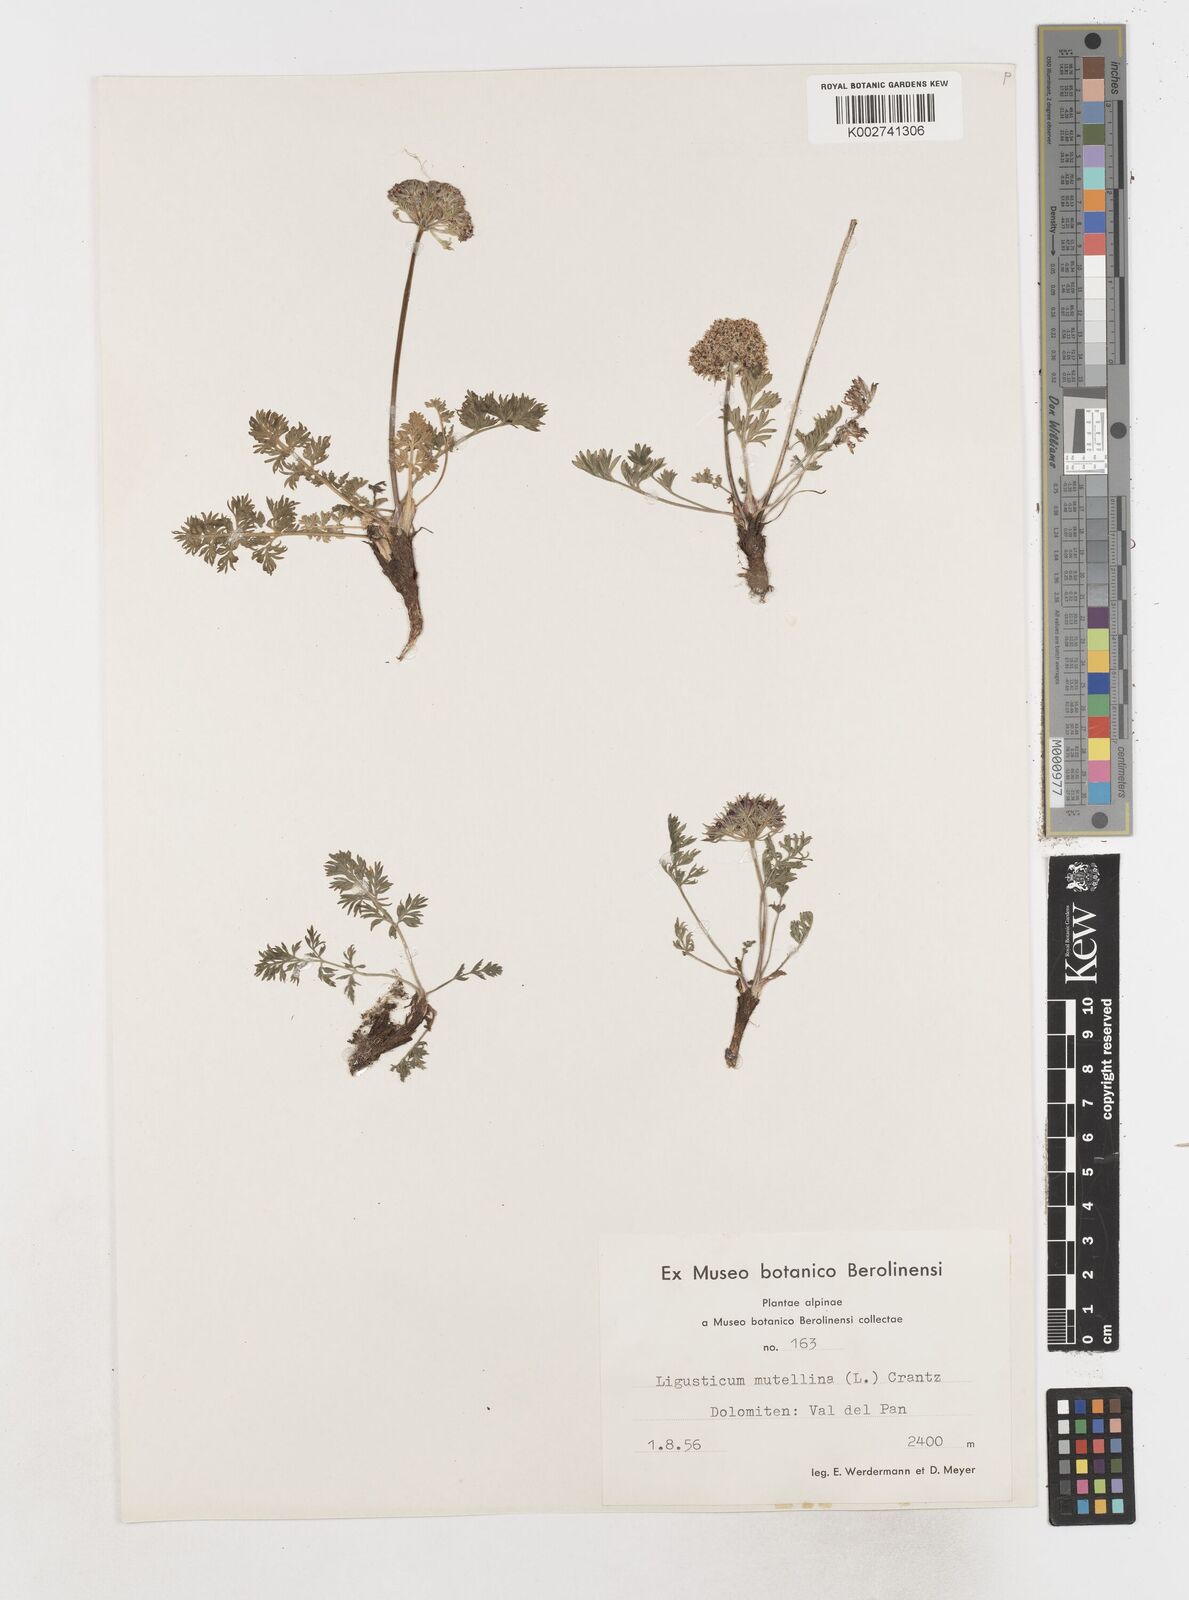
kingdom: Plantae
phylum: Tracheophyta
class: Magnoliopsida
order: Apiales
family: Apiaceae
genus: Mutellina
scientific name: Mutellina adonidifolia
